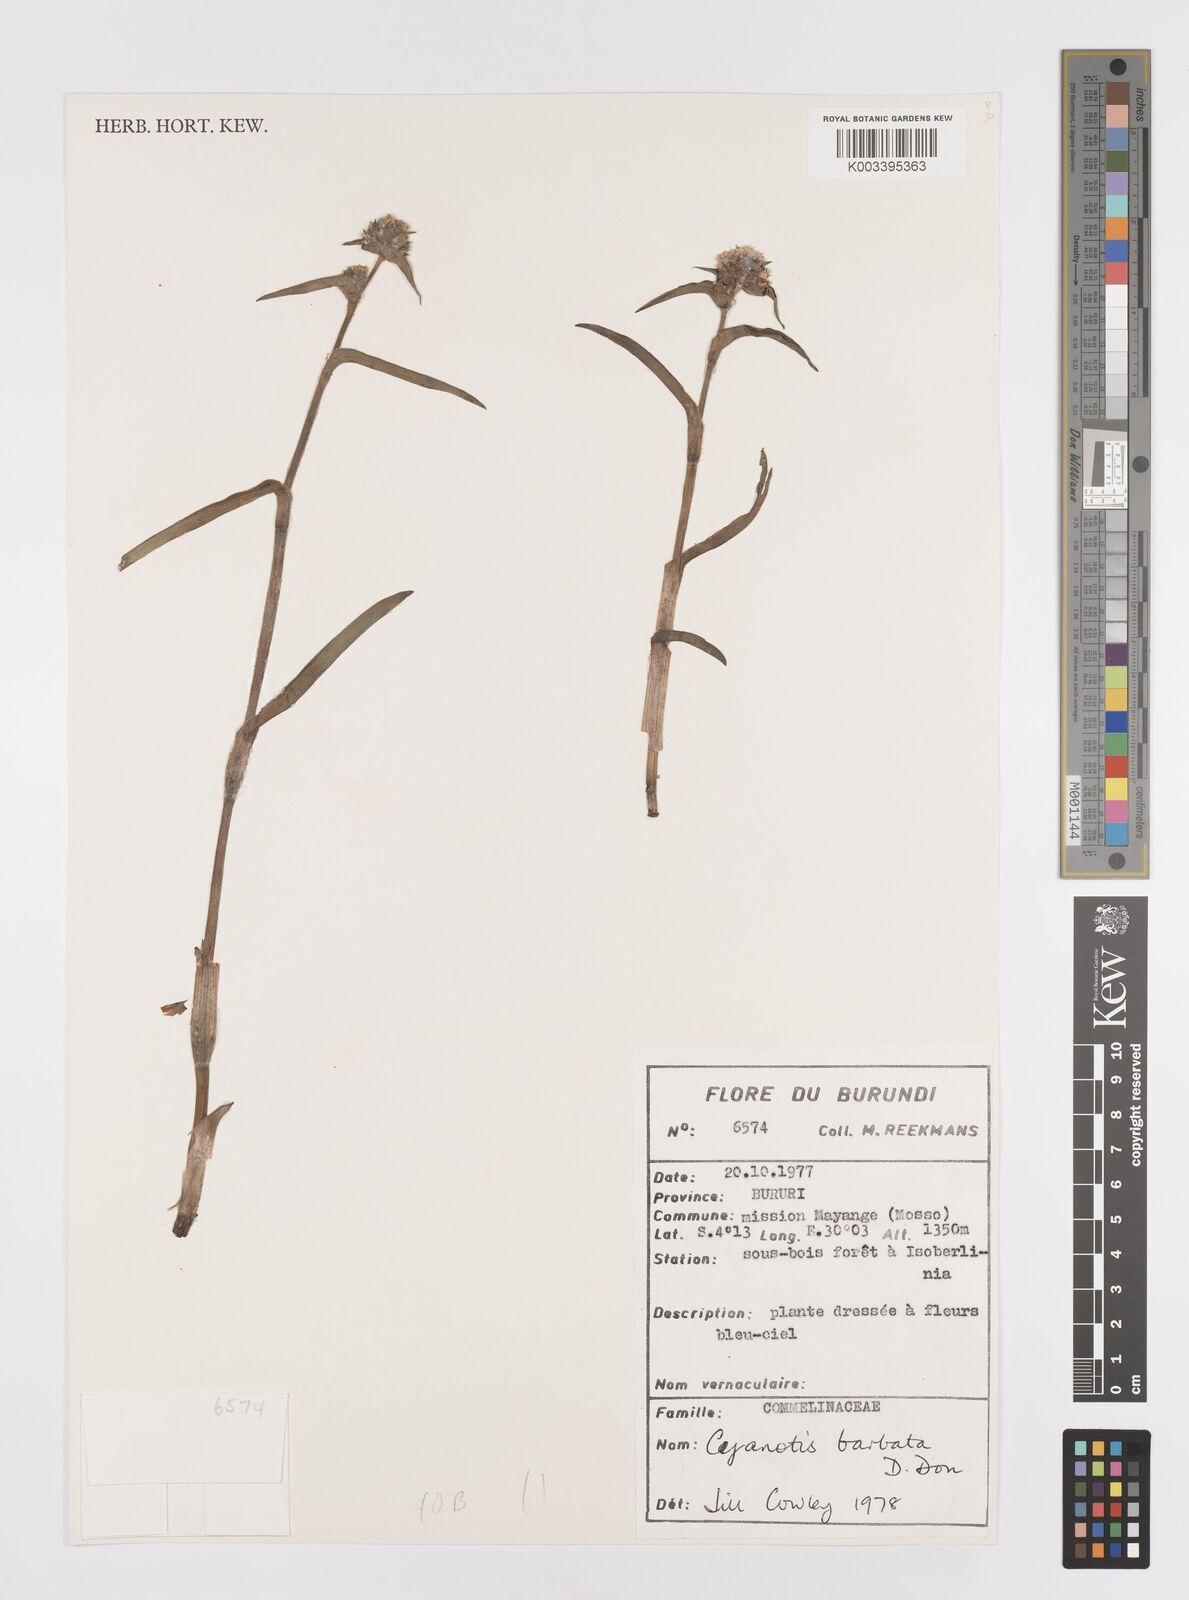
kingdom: Plantae
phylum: Tracheophyta
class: Liliopsida
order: Commelinales
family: Commelinaceae
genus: Cyanotis
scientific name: Cyanotis vaga
